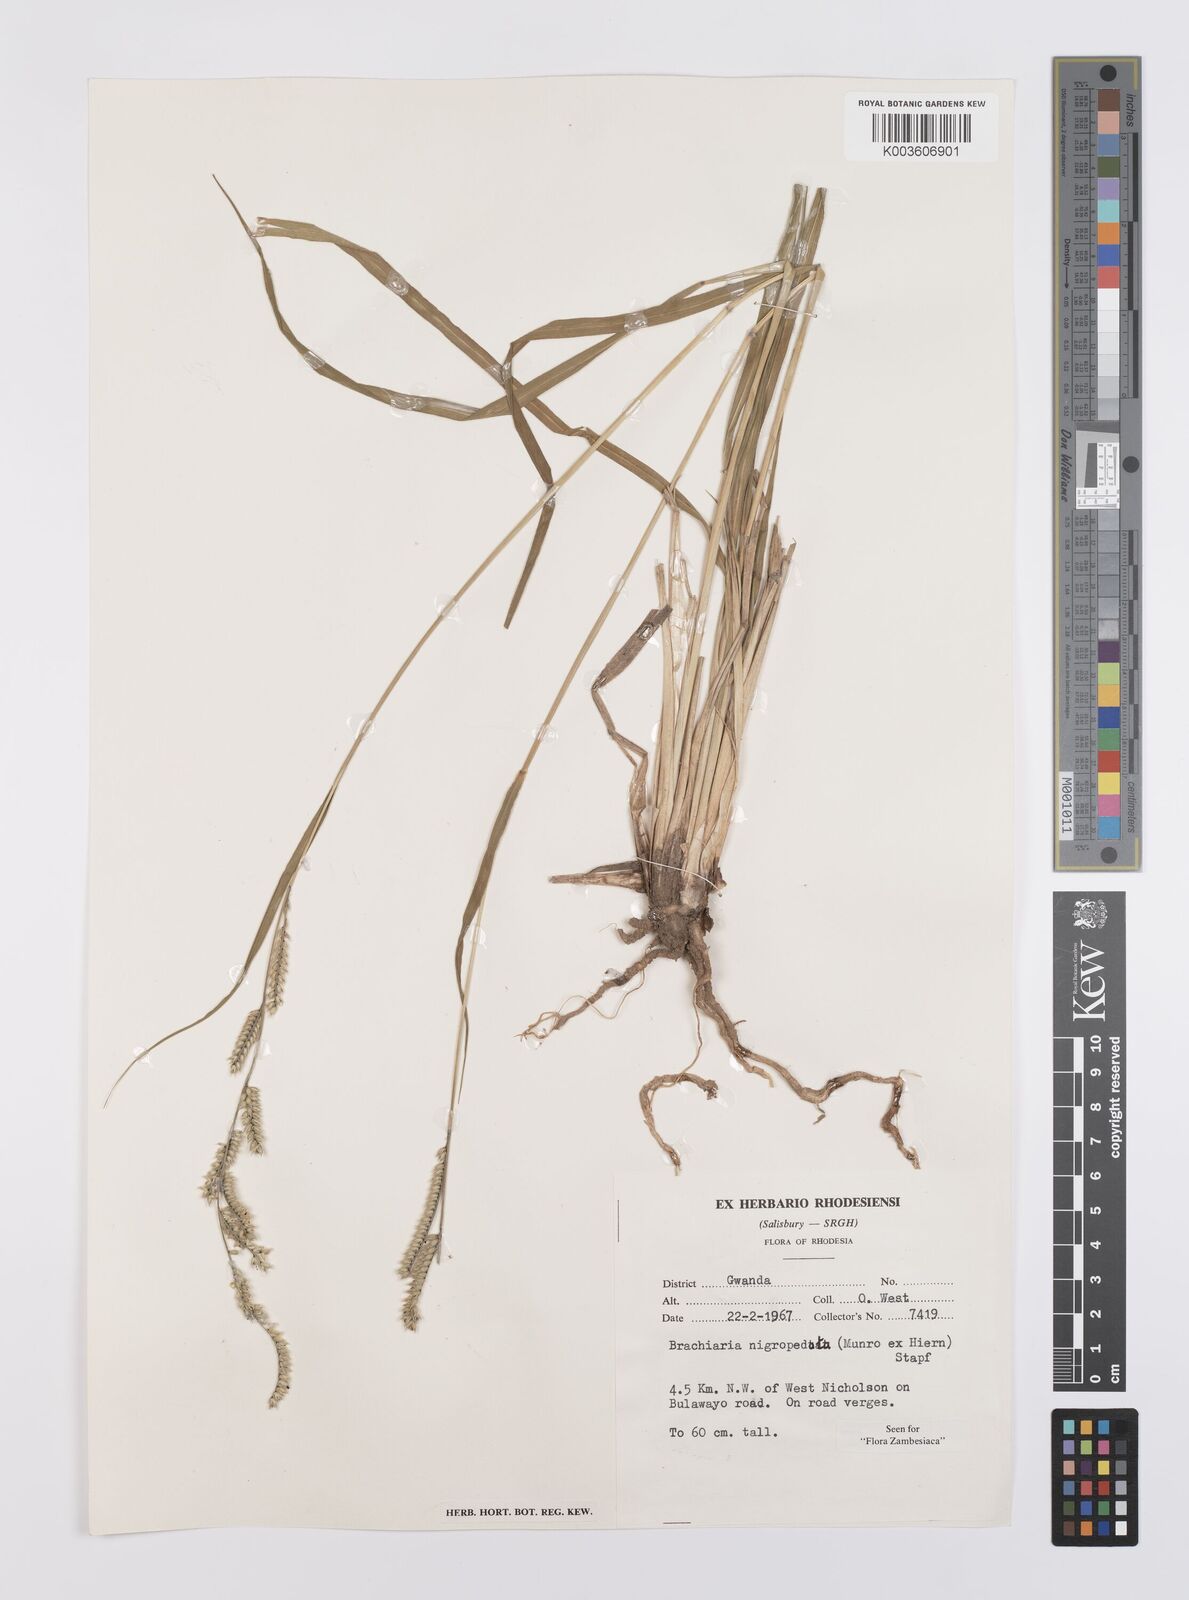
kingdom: Plantae
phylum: Tracheophyta
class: Liliopsida
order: Poales
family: Poaceae
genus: Urochloa
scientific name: Urochloa nigropedata
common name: Spotted signal grass
